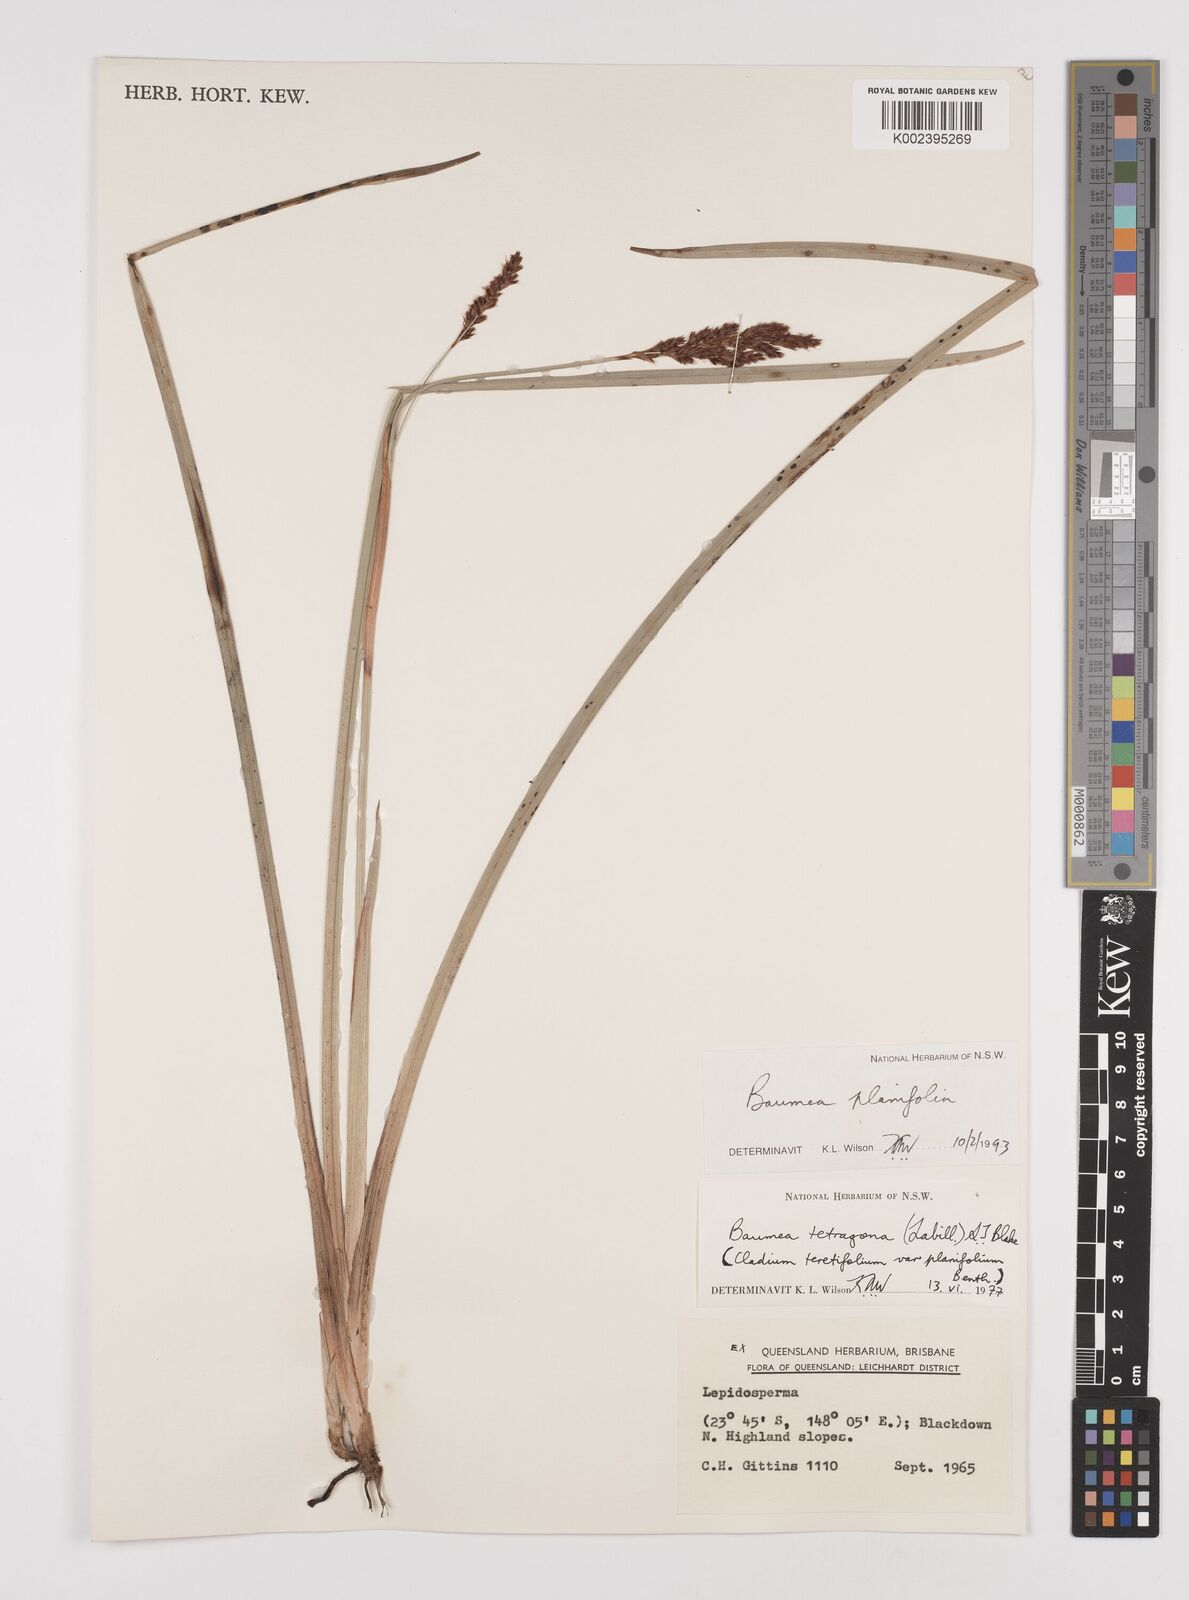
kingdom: Plantae
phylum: Tracheophyta
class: Liliopsida
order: Poales
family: Cyperaceae
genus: Machaerina
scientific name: Machaerina teretifolia
